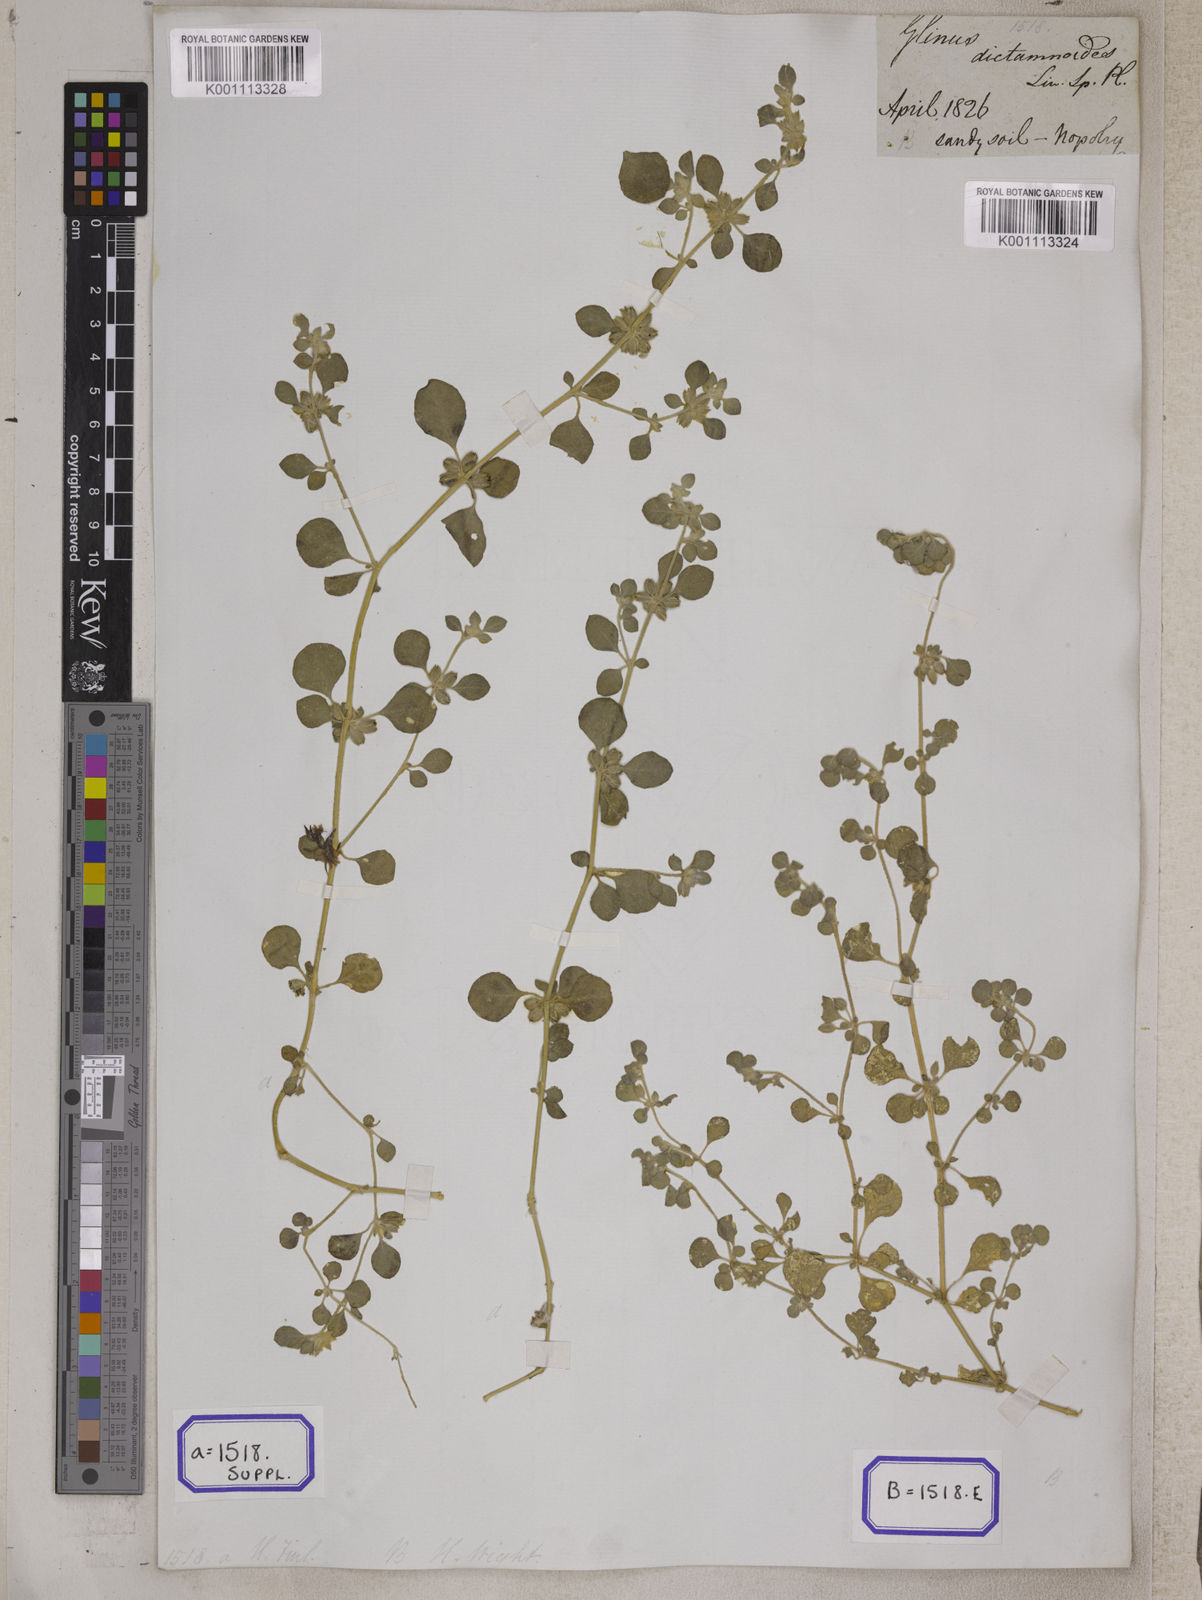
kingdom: Plantae
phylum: Tracheophyta
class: Magnoliopsida
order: Caryophyllales
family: Molluginaceae
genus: Glinus
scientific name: Glinus
